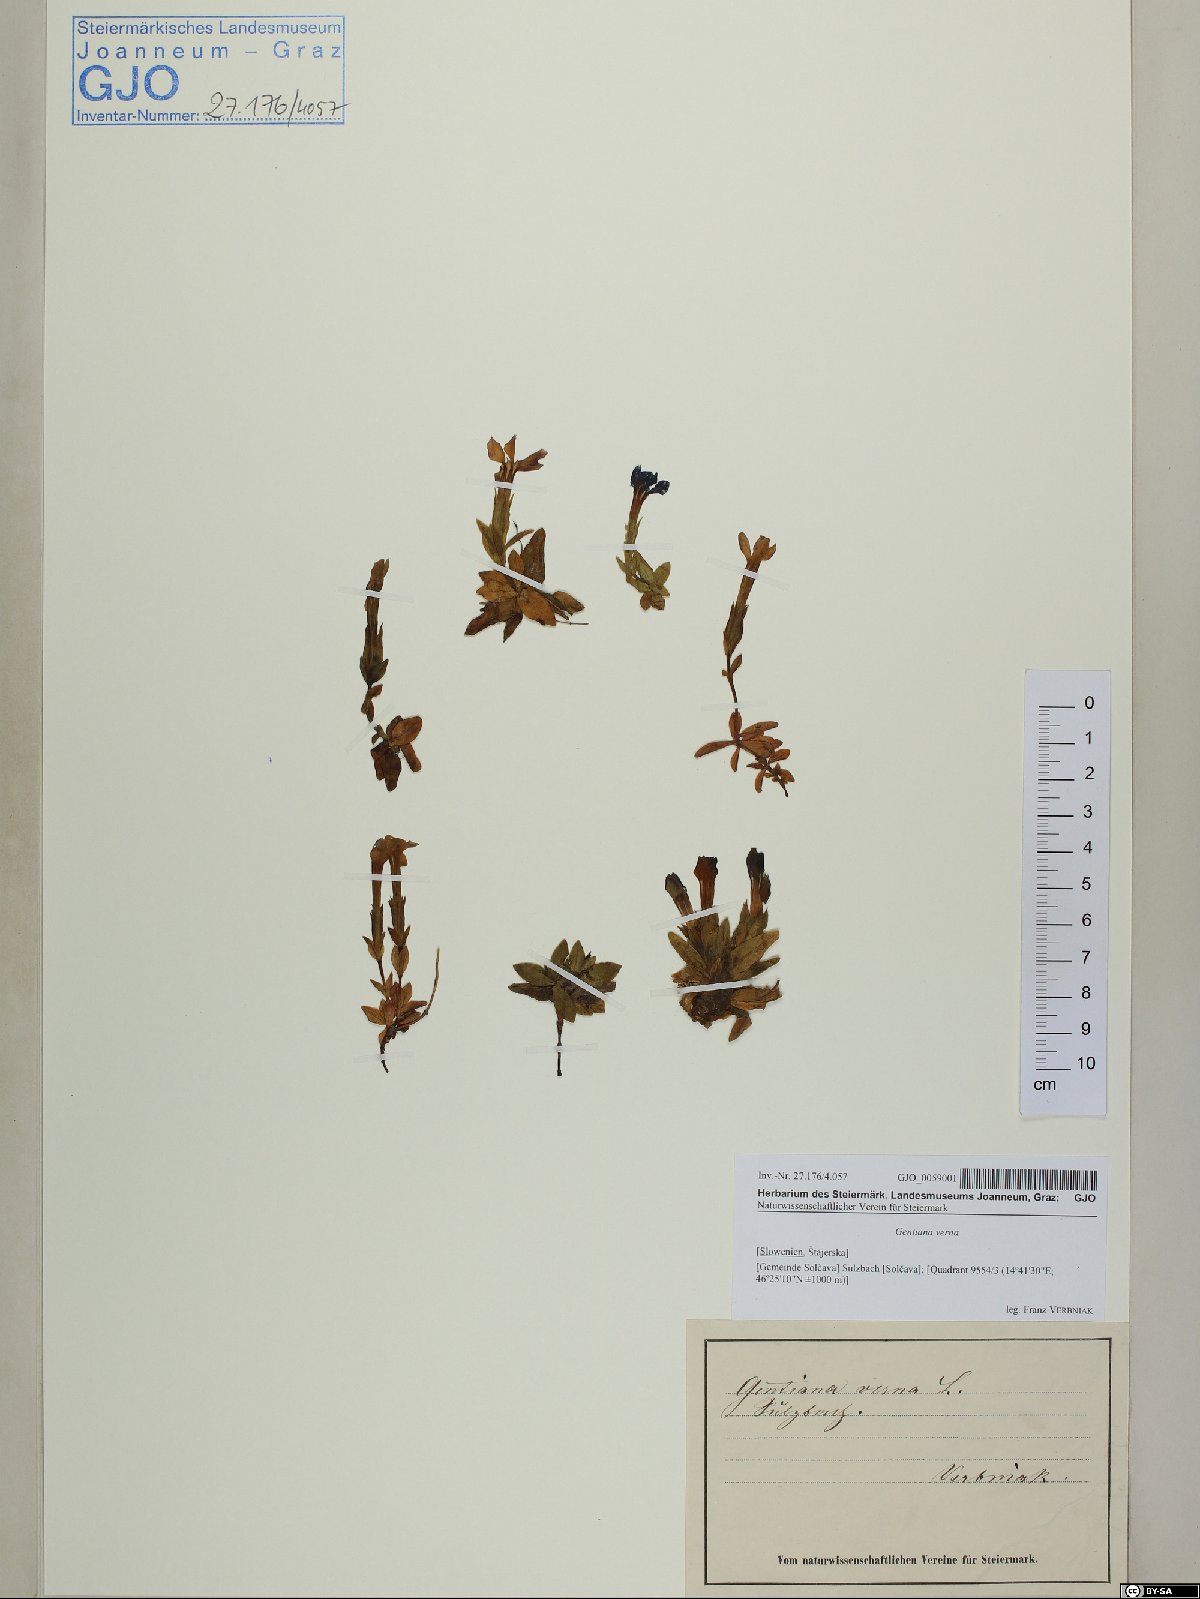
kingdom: Plantae
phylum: Tracheophyta
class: Magnoliopsida
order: Gentianales
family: Gentianaceae
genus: Gentiana
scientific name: Gentiana verna
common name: Spring gentian
